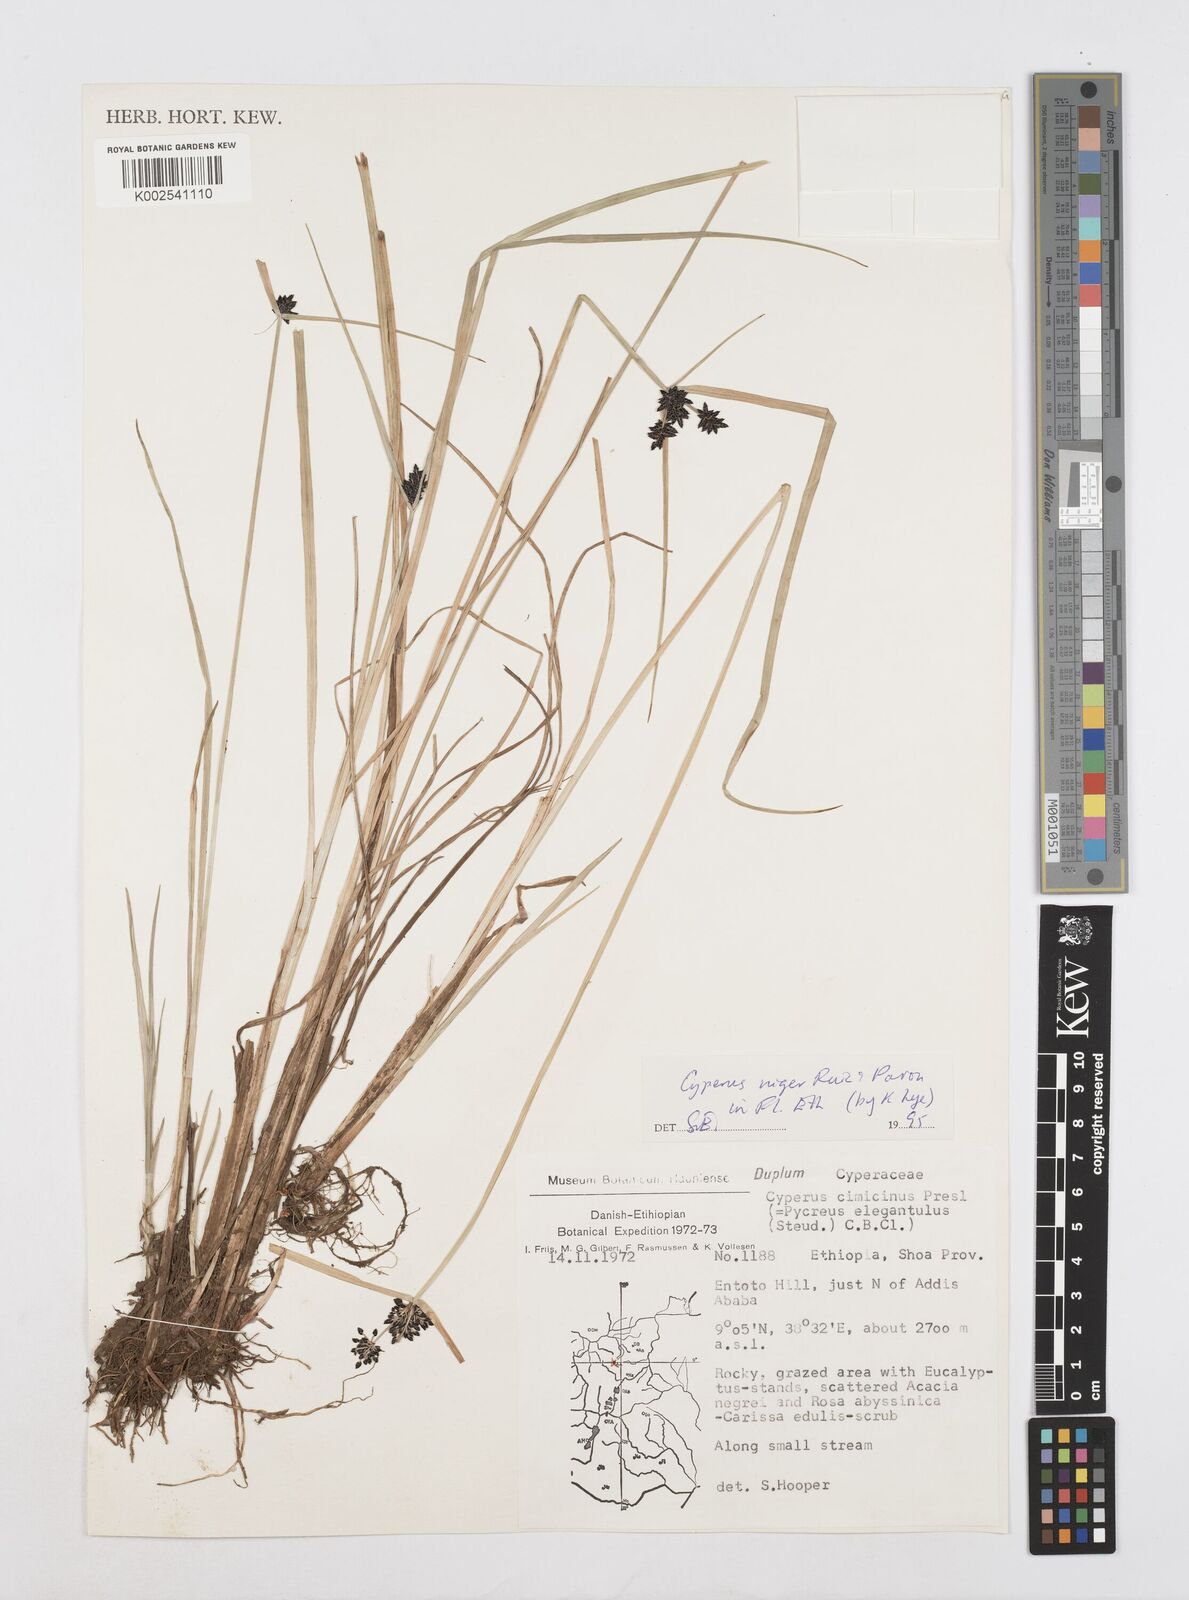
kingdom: Plantae
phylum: Tracheophyta
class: Liliopsida
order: Poales
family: Cyperaceae
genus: Cyperus
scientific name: Cyperus elegantulus
